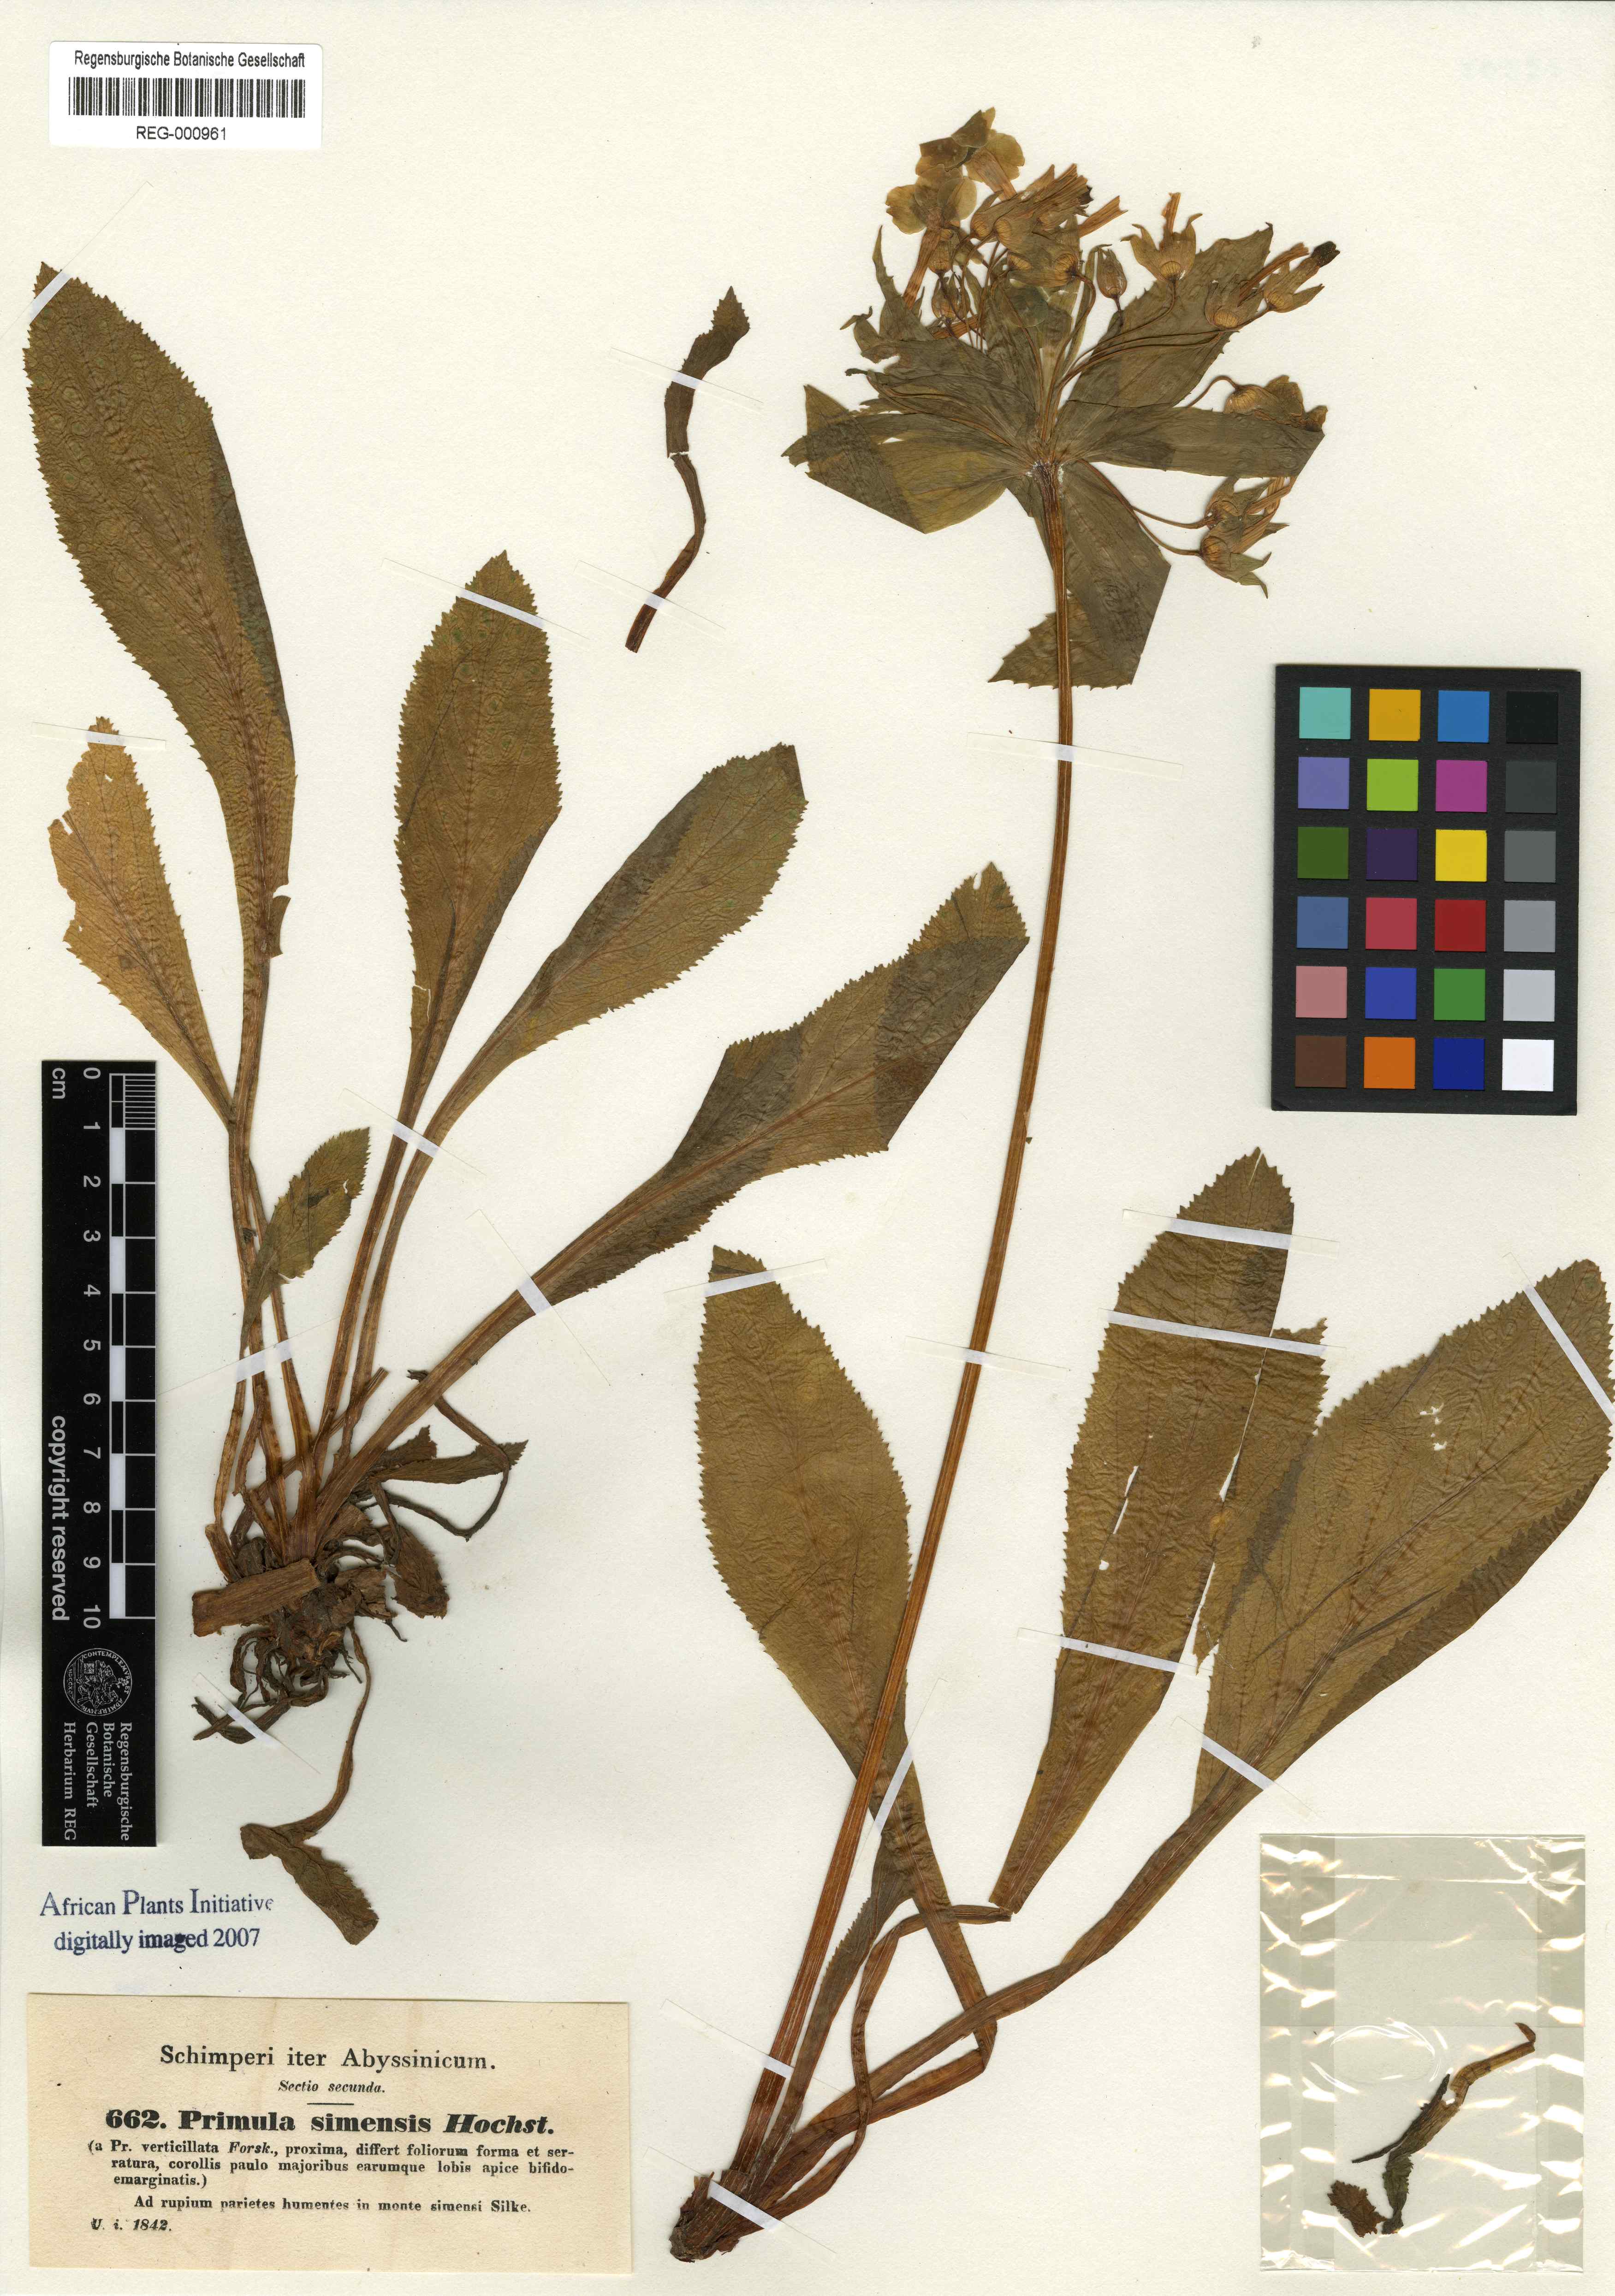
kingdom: Plantae
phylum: Tracheophyta
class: Magnoliopsida
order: Ericales
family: Primulaceae
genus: Evotrochis
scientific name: Evotrochis involucrata
